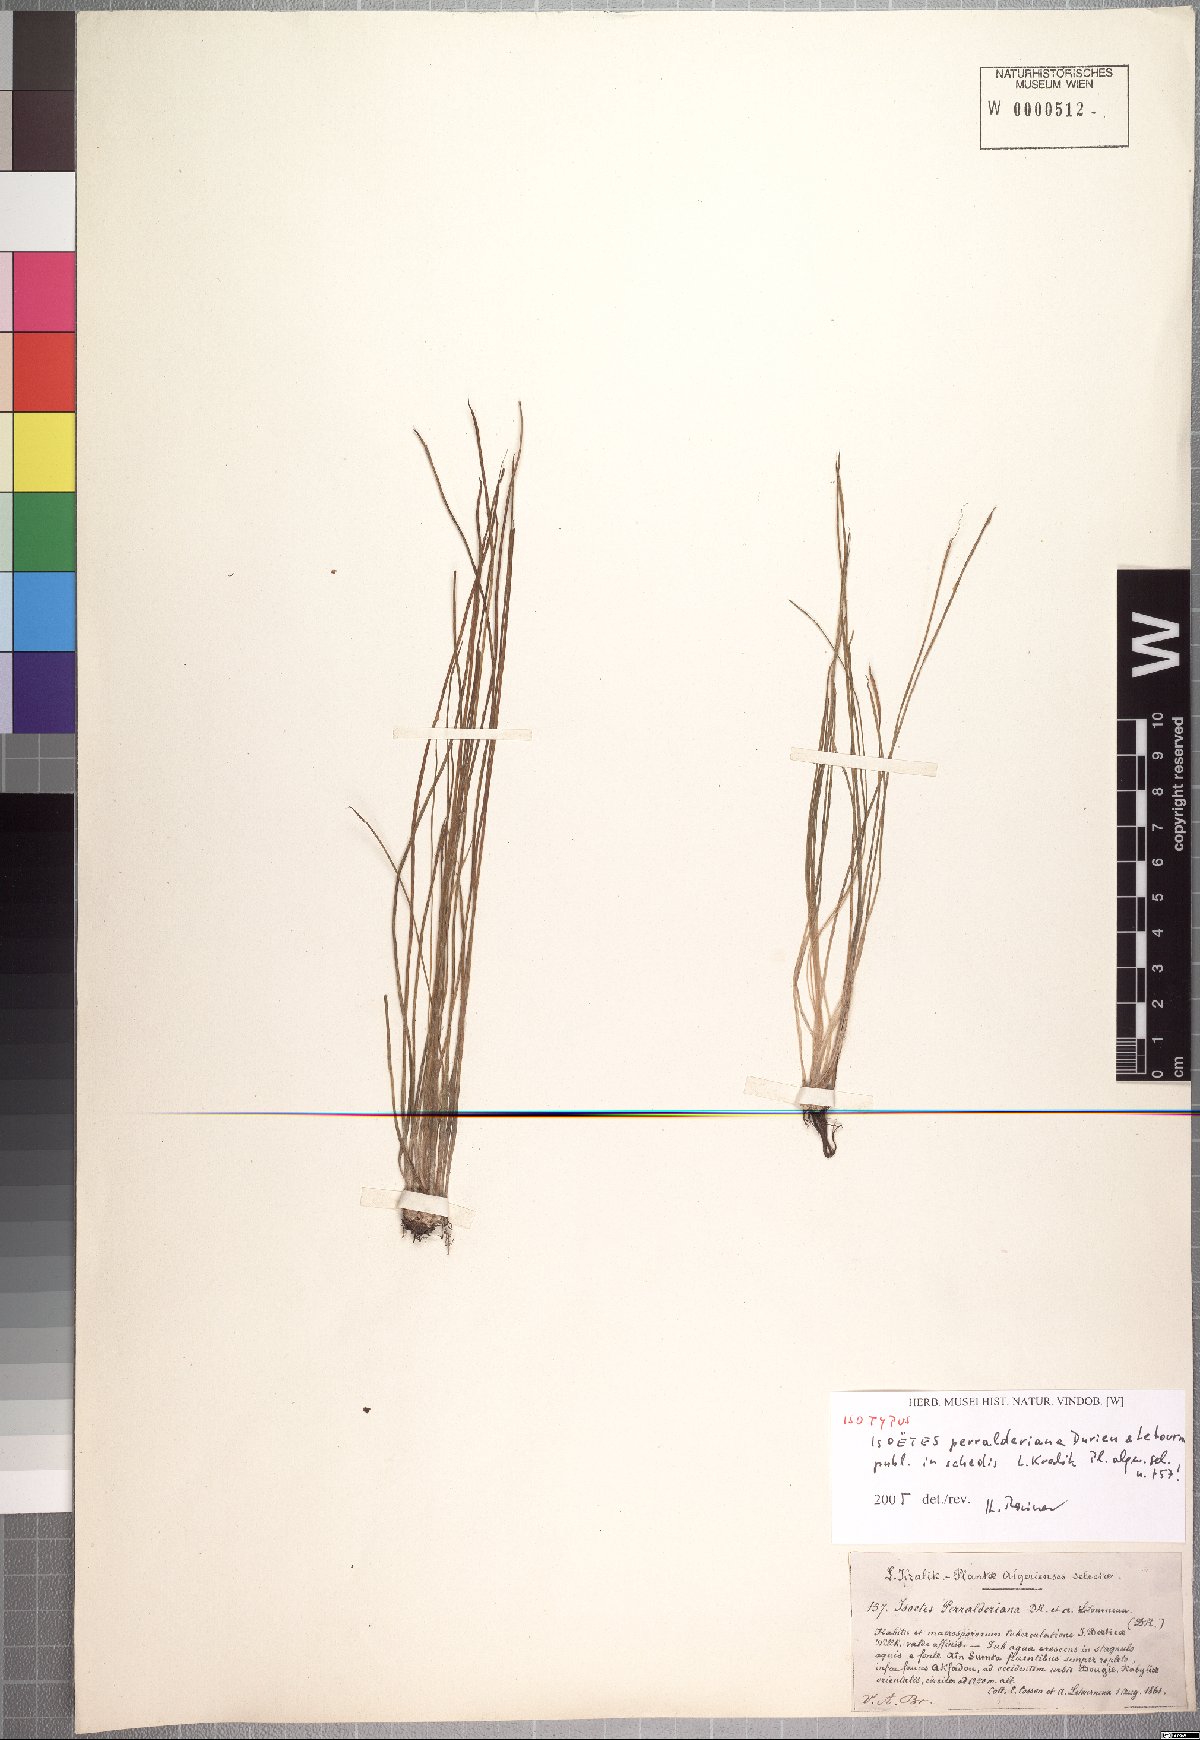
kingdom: Plantae
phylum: Tracheophyta
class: Lycopodiopsida
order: Isoetales
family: Isoetaceae
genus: Isoetes
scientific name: Isoetes longissima
